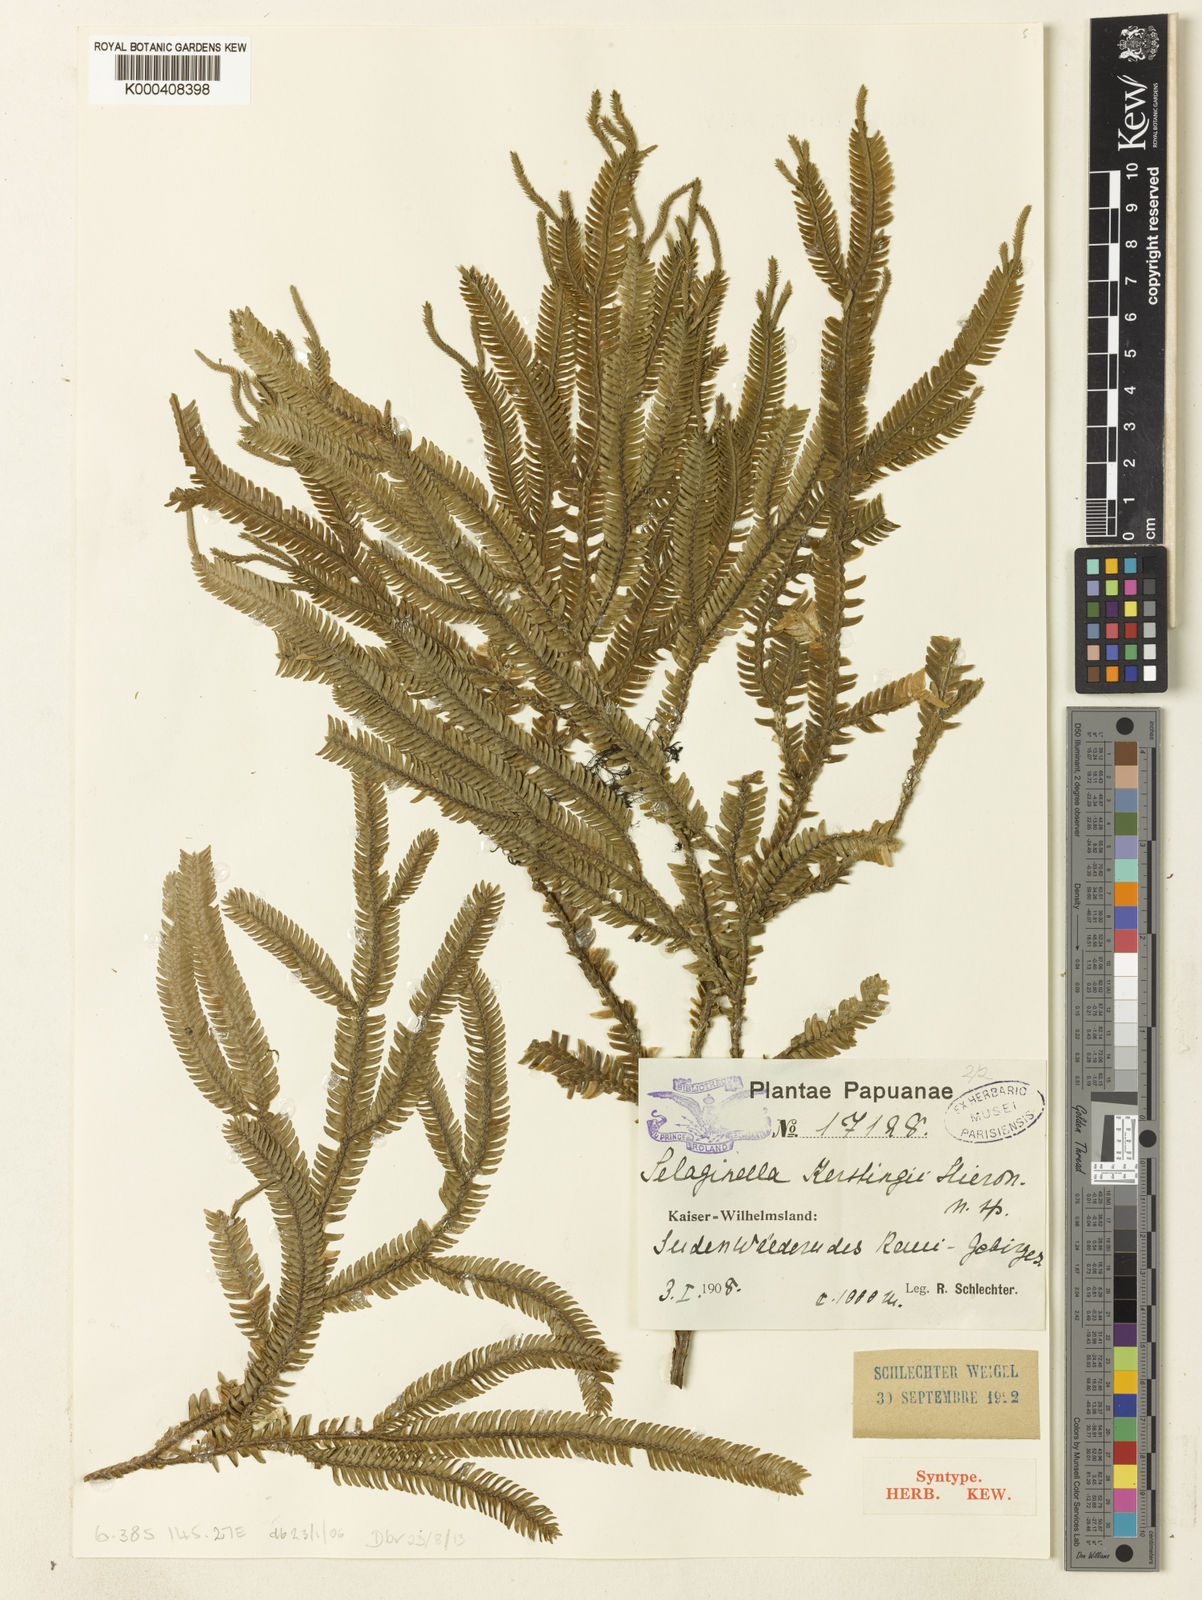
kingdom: Plantae
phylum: Tracheophyta
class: Lycopodiopsida
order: Selaginellales
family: Selaginellaceae
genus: Selaginella
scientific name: Selaginella kerstingii
